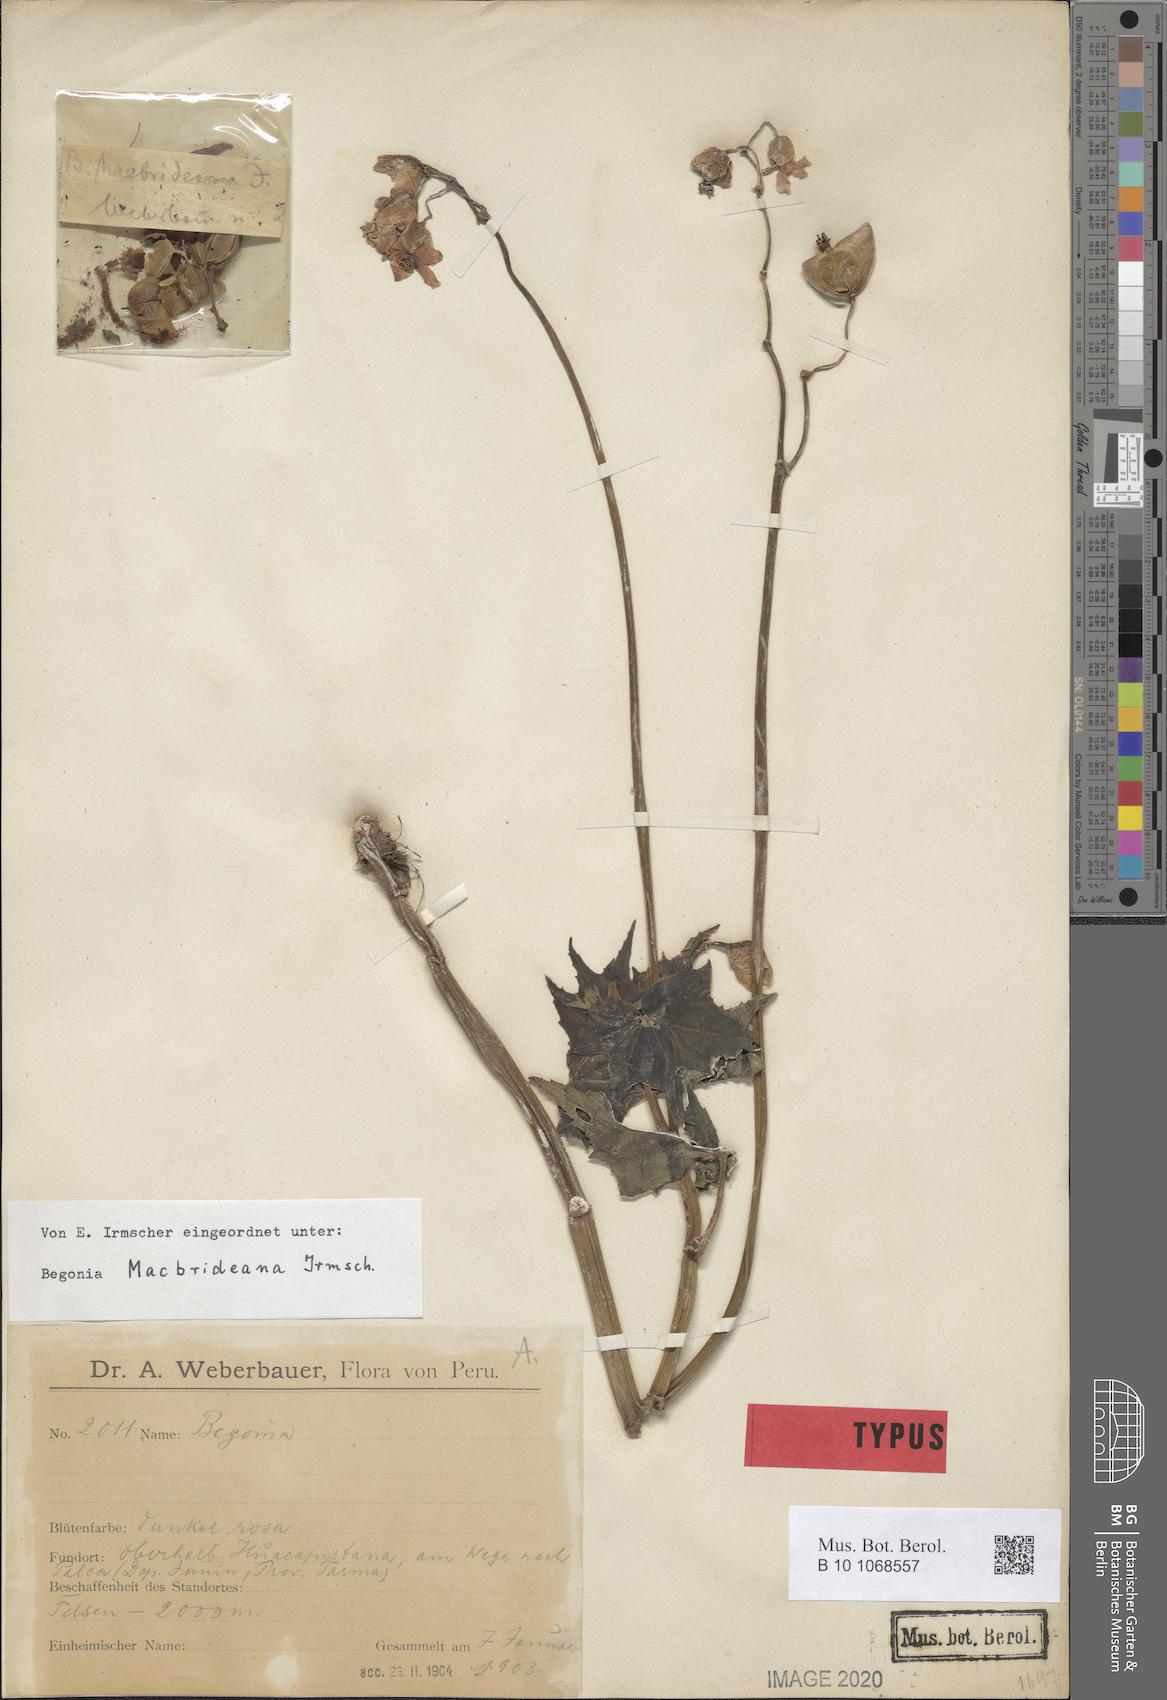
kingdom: Plantae
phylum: Tracheophyta
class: Magnoliopsida
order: Cucurbitales
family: Begoniaceae
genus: Begonia
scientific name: Begonia acerifolia
